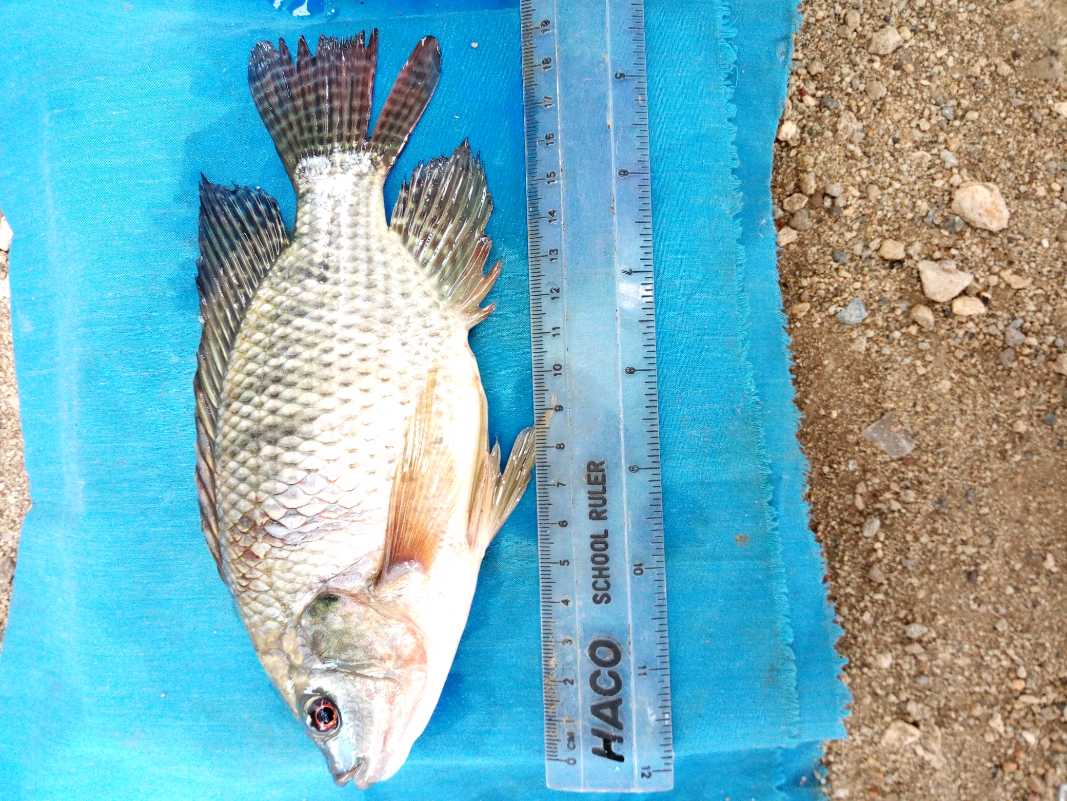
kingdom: Animalia
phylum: Chordata
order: Perciformes
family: Cichlidae
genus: Oreochromis
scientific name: Oreochromis niloticus
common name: Nile tilapia
